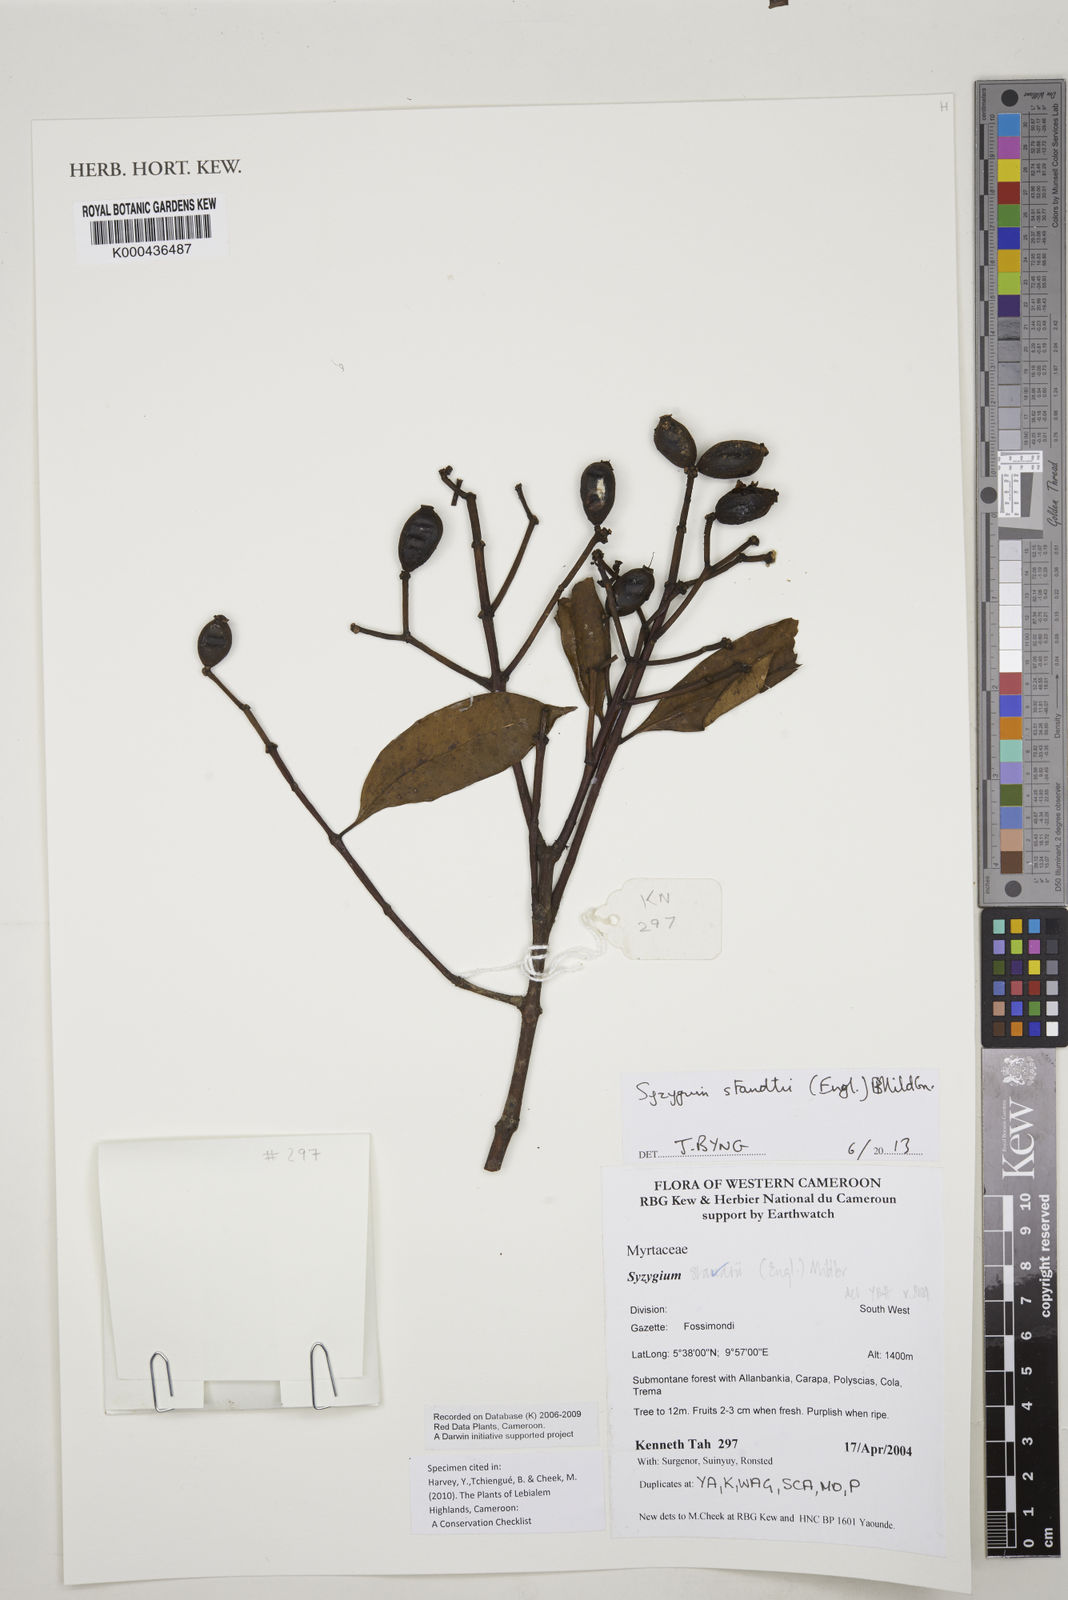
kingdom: Plantae
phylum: Tracheophyta
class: Magnoliopsida
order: Myrtales
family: Myrtaceae
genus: Syzygium
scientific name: Syzygium staudtii
